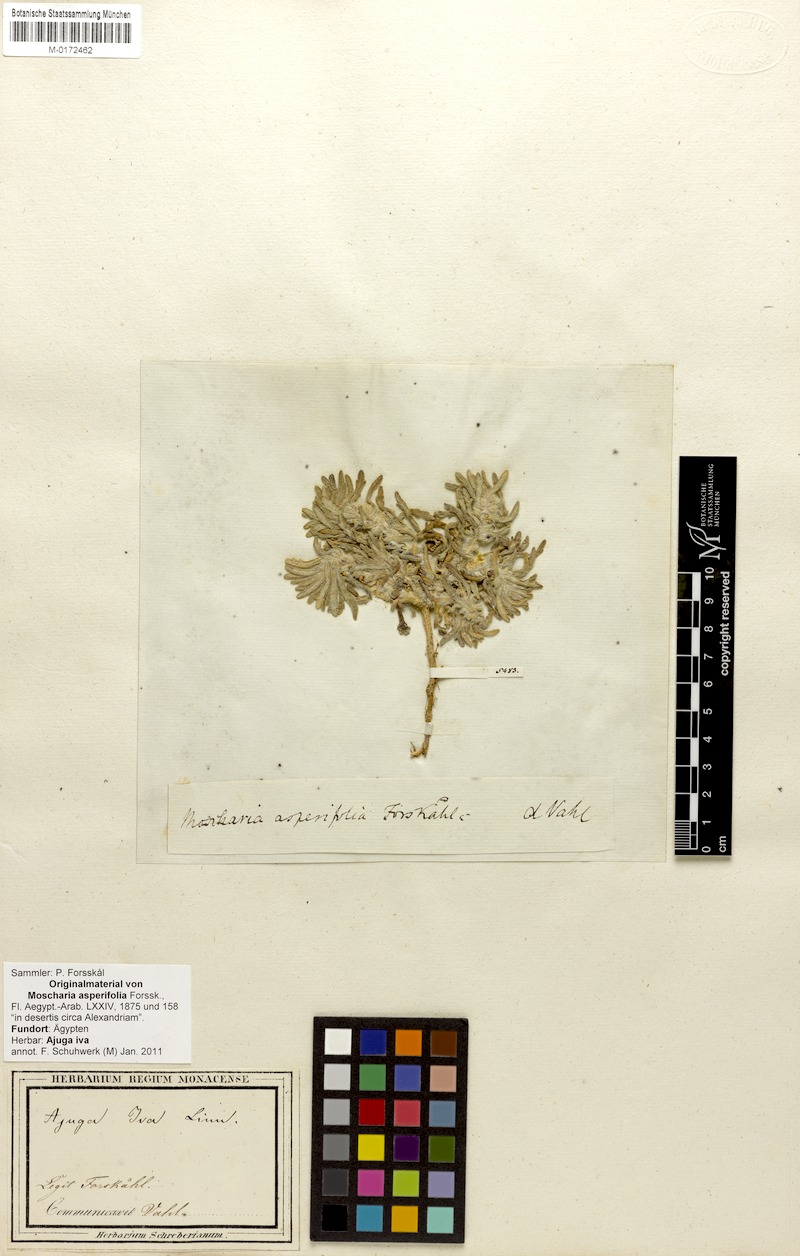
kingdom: Plantae
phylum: Tracheophyta
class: Magnoliopsida
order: Lamiales
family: Lamiaceae
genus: Ajuga
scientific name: Ajuga iva
